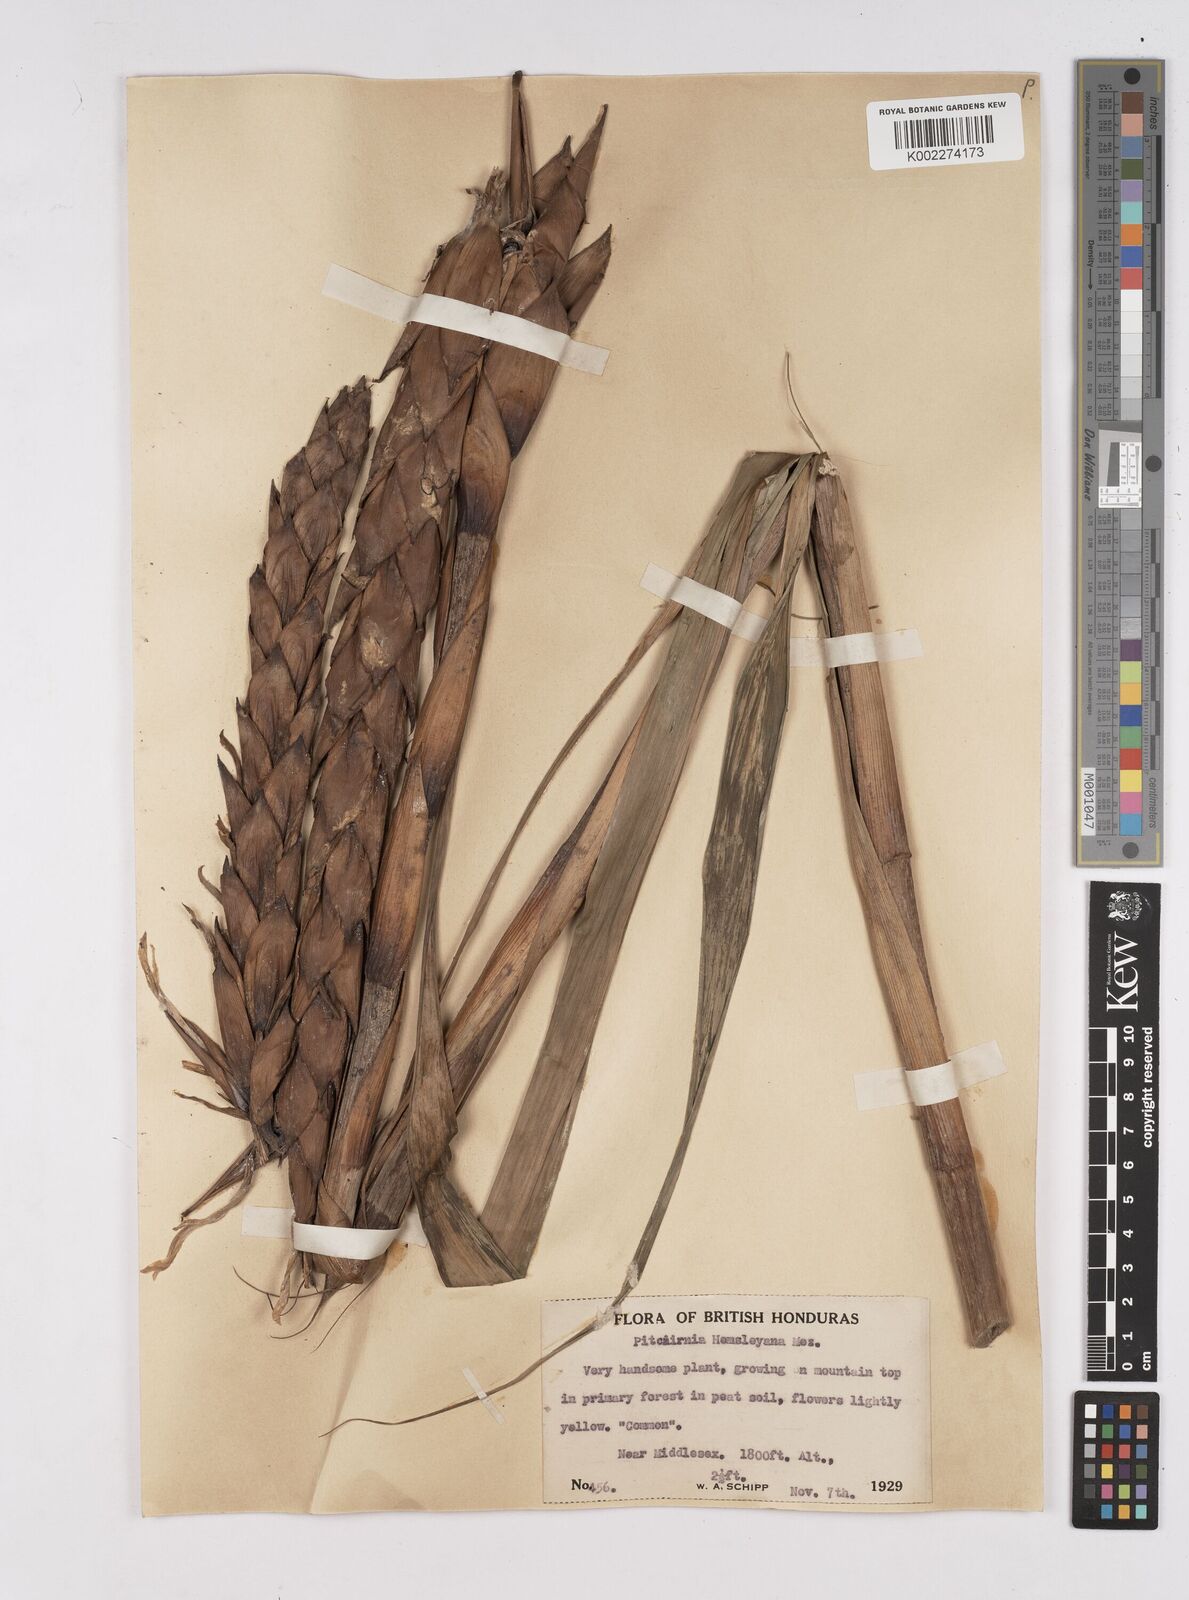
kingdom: Plantae
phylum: Tracheophyta
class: Liliopsida
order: Poales
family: Bromeliaceae
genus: Pitcairnia
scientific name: Pitcairnia imbricata
